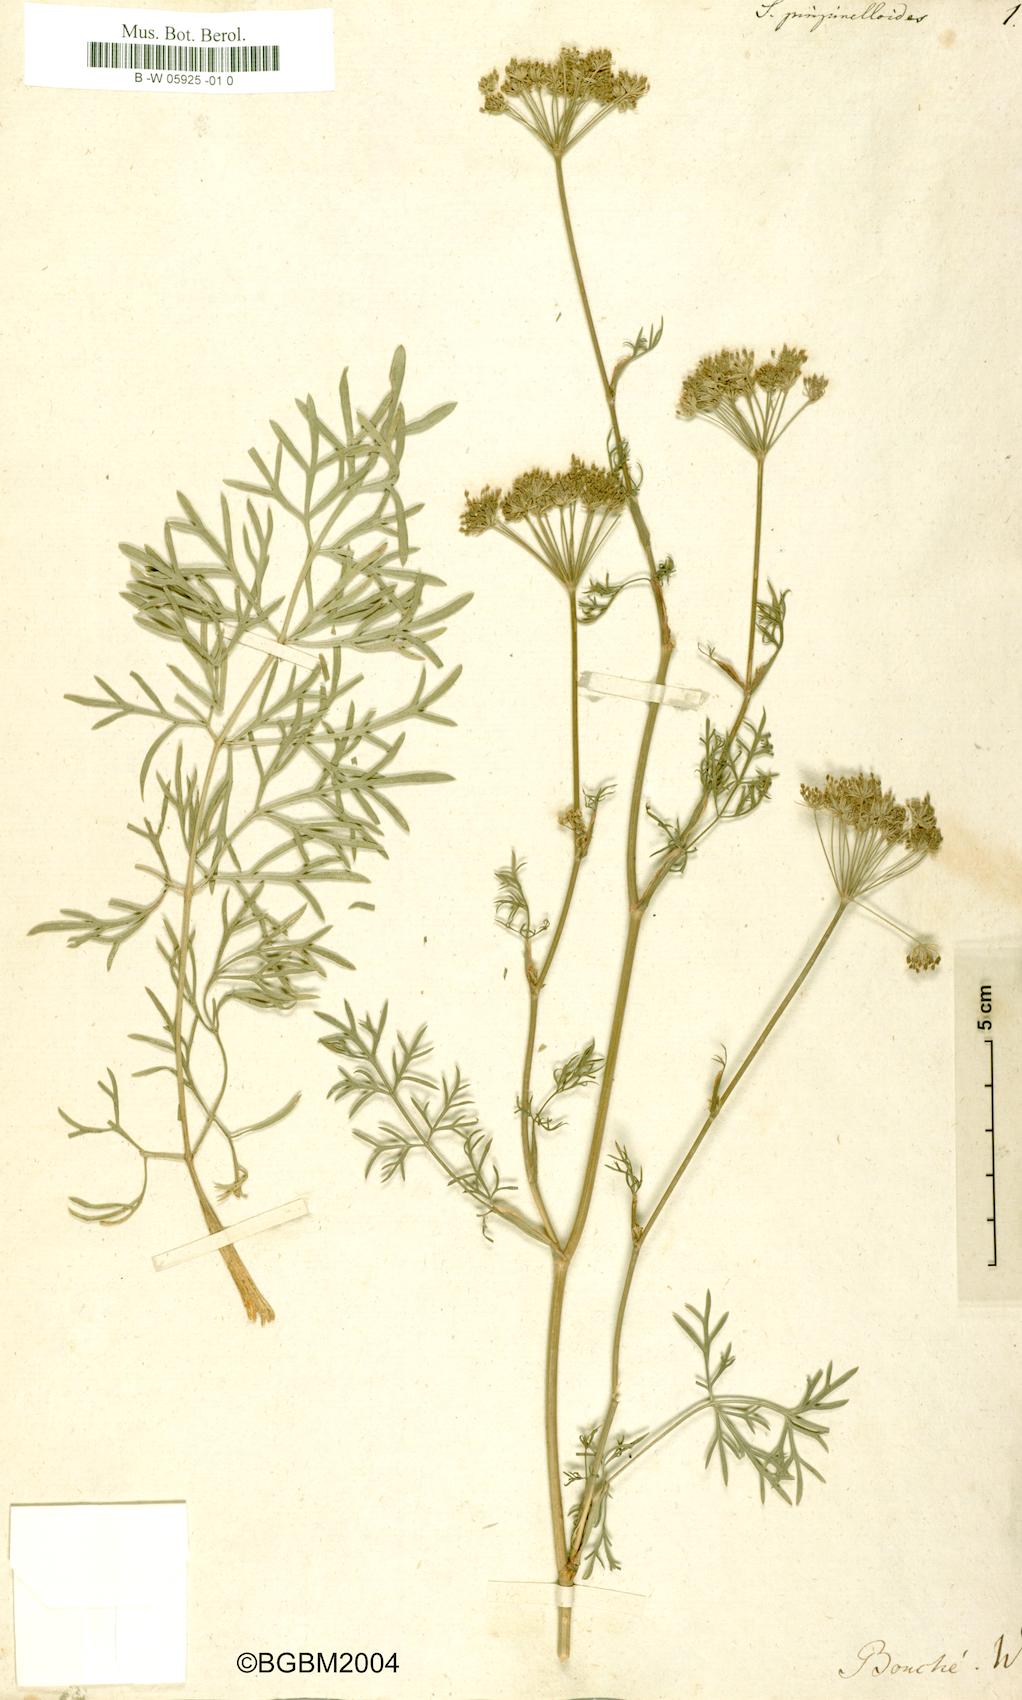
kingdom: Plantae
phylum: Tracheophyta
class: Magnoliopsida
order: Apiales
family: Apiaceae
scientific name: Apiaceae
